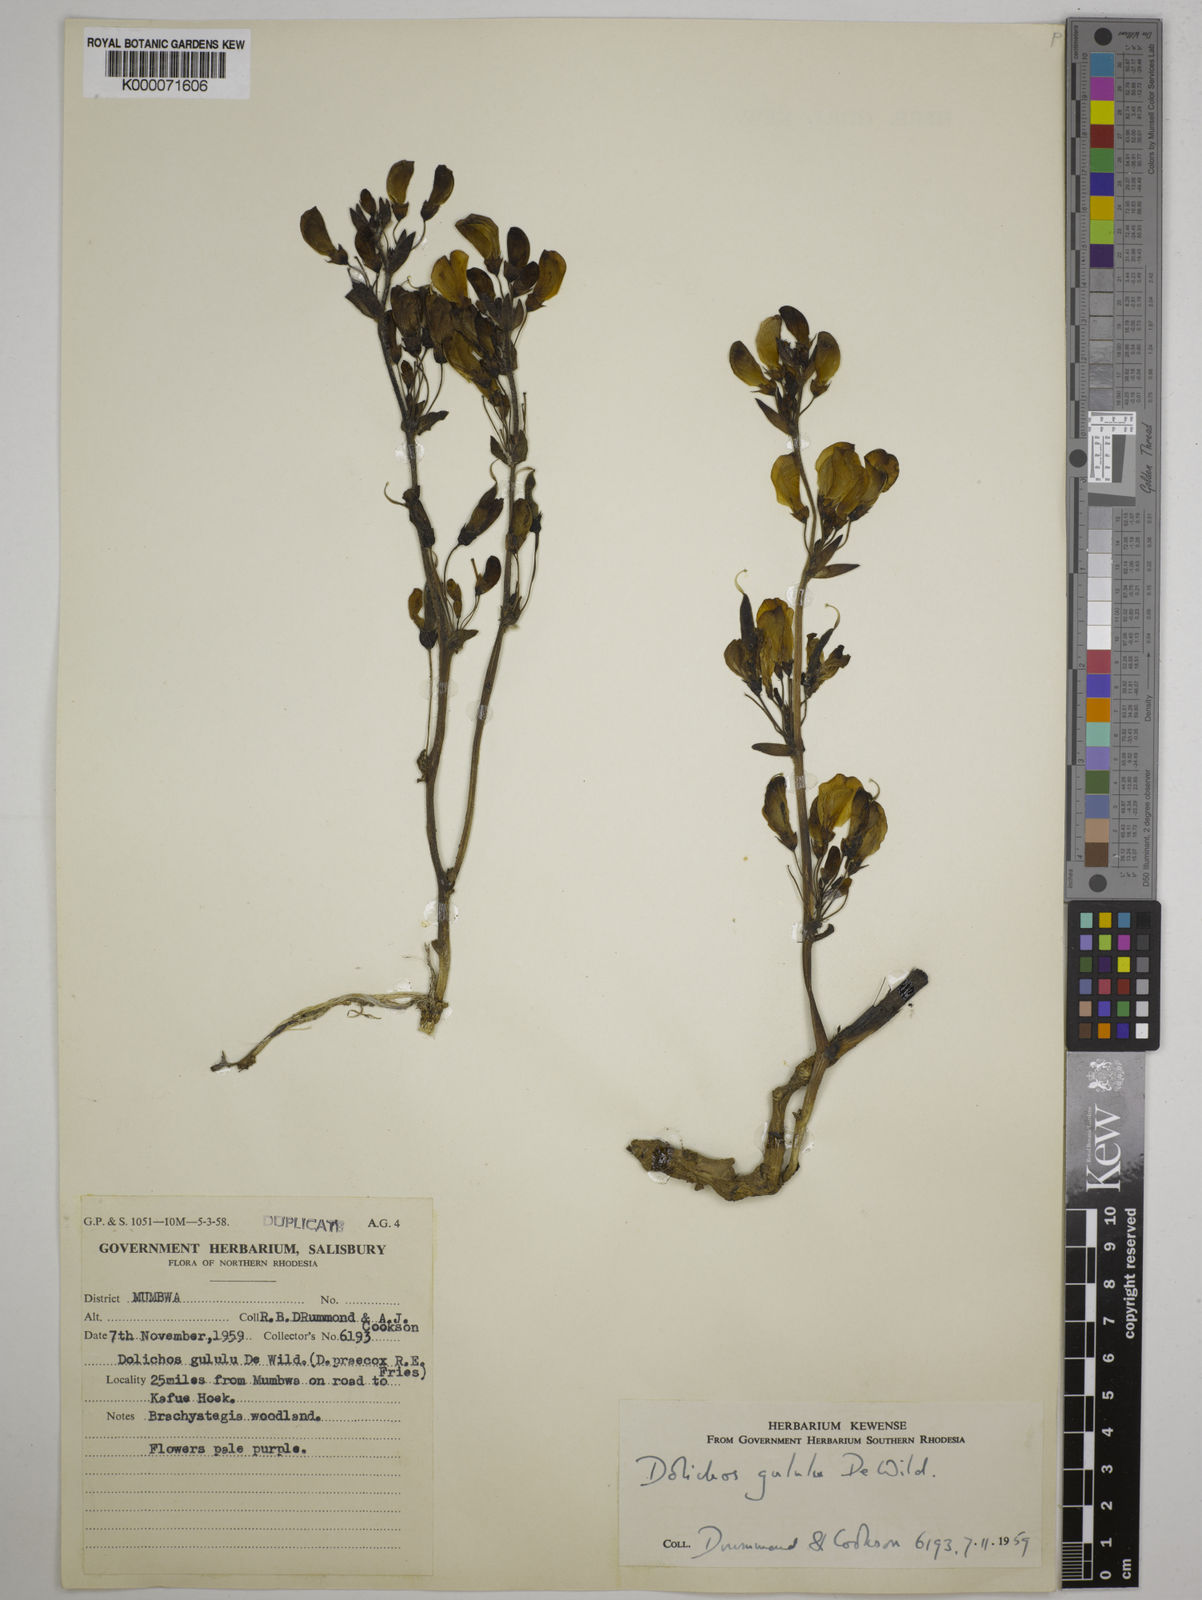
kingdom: Plantae
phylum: Tracheophyta
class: Magnoliopsida
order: Fabales
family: Fabaceae
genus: Dolichos
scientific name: Dolichos gululu
